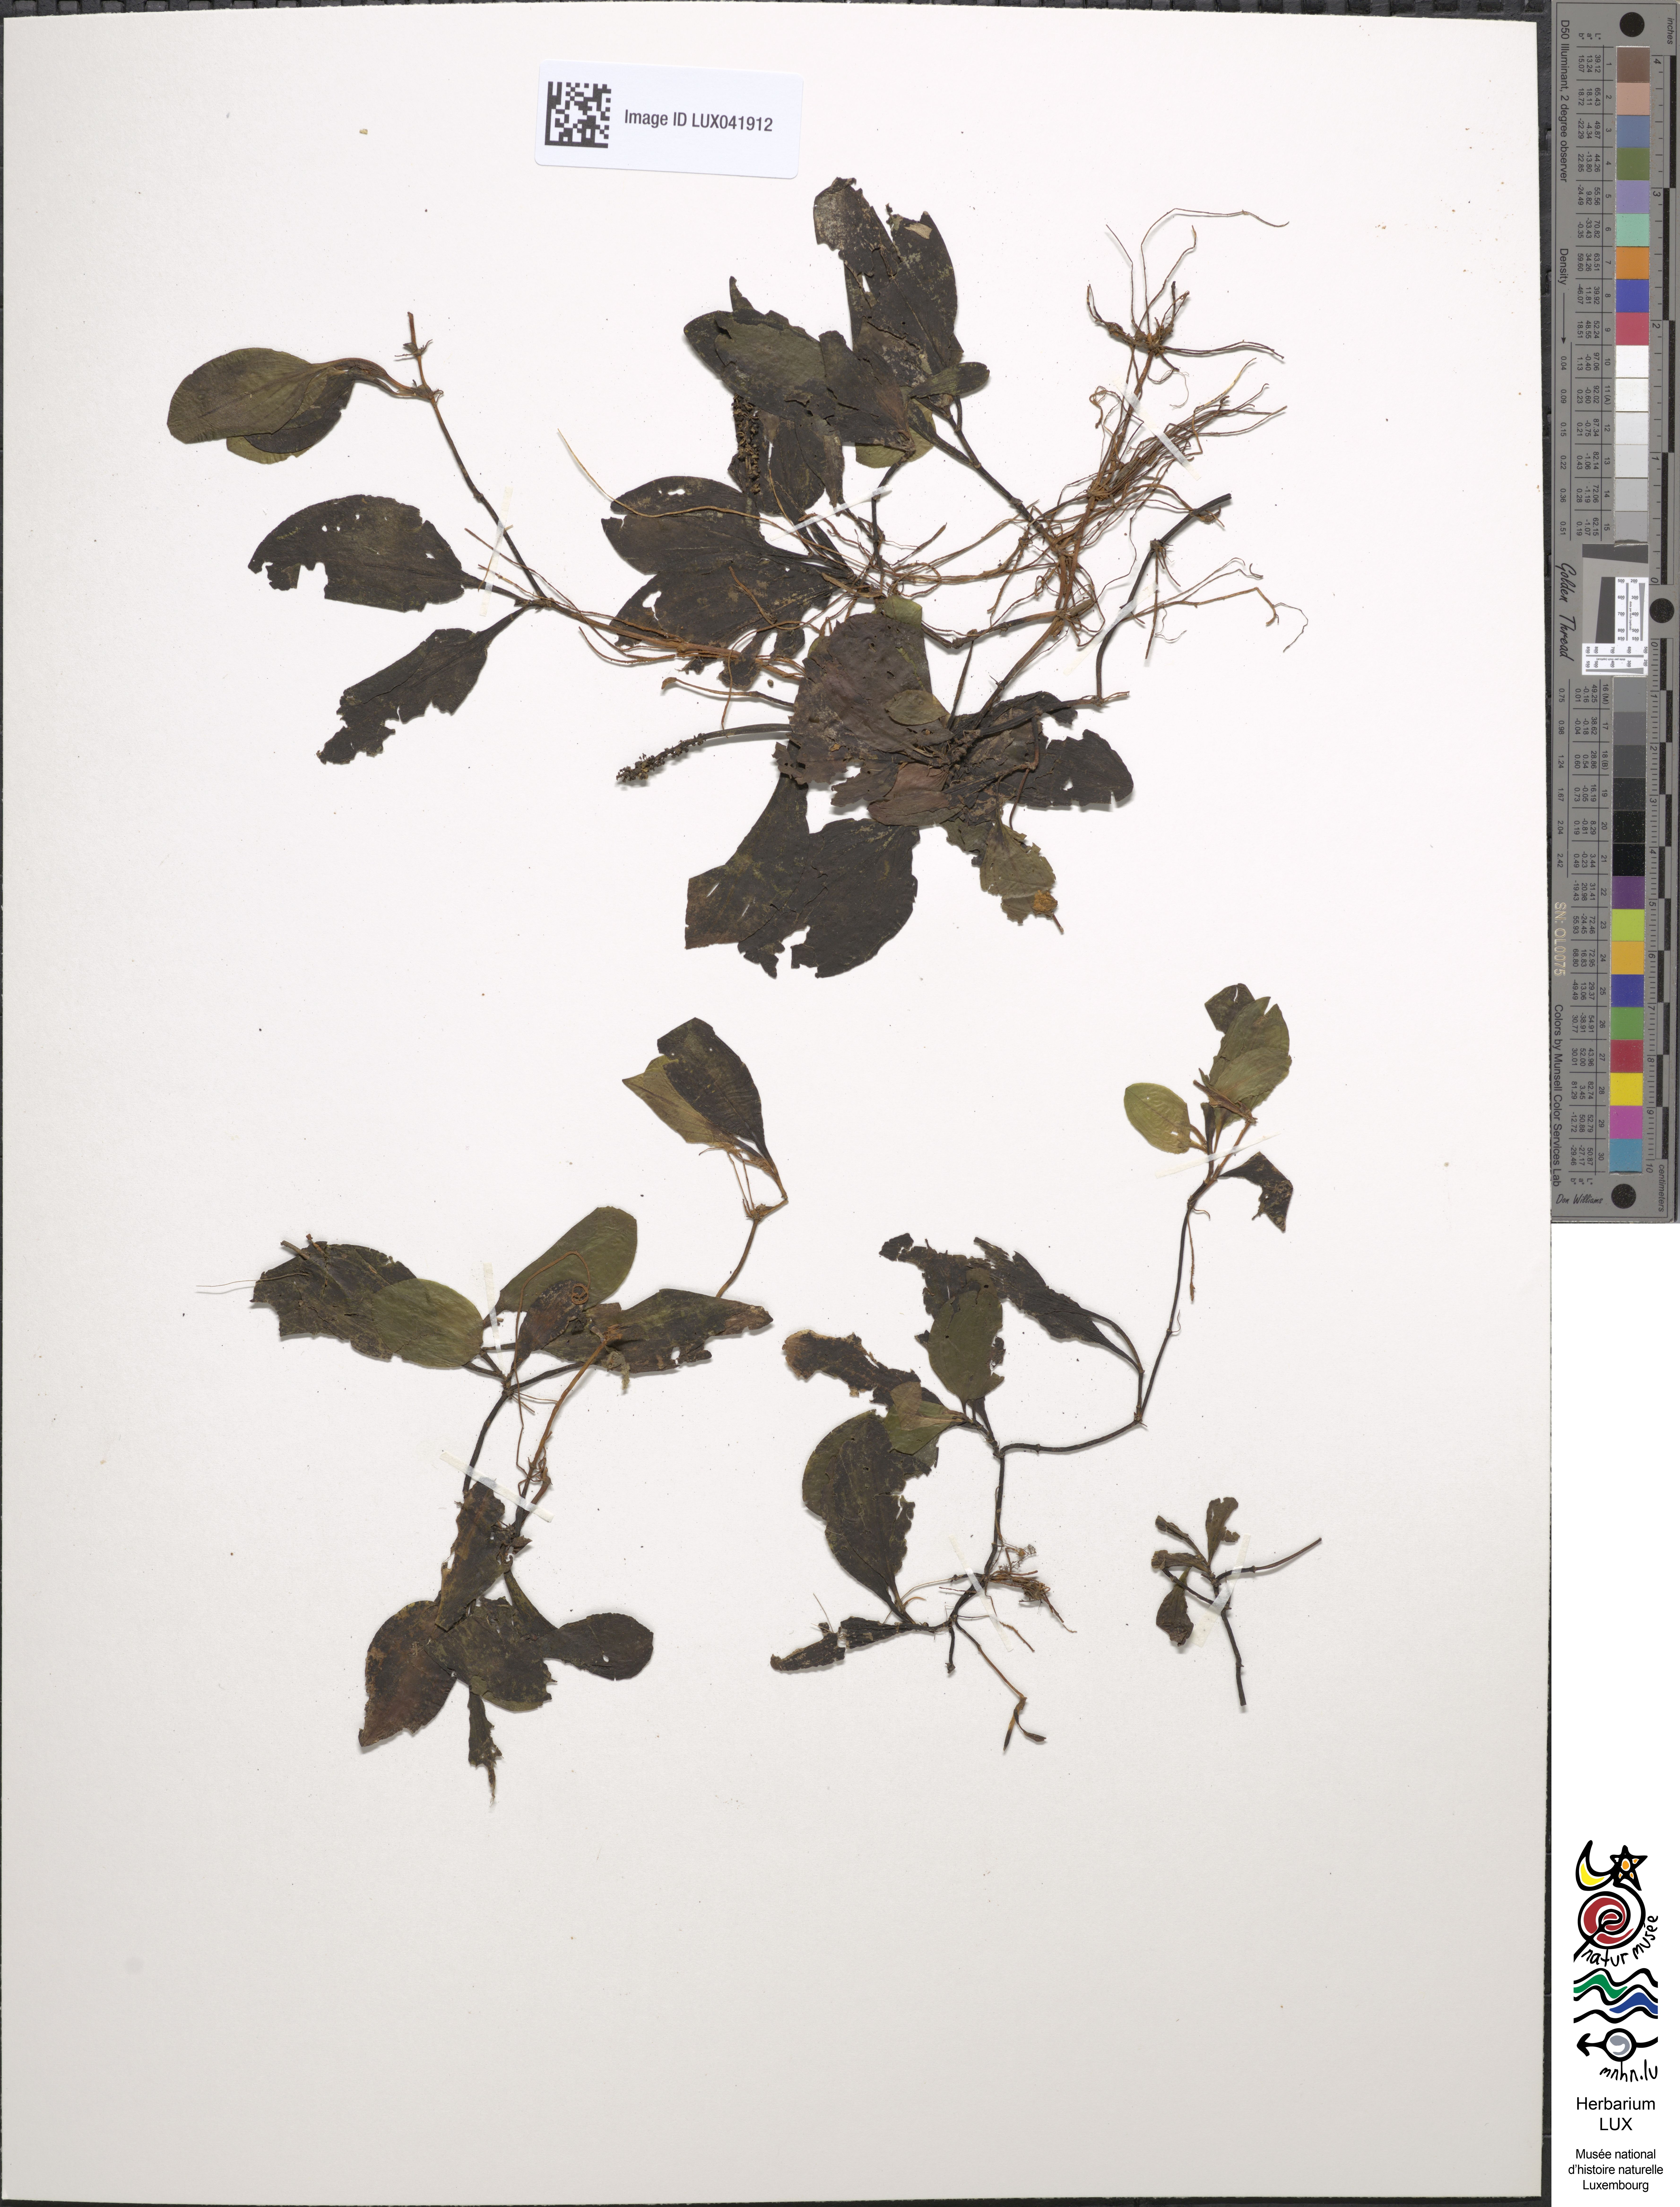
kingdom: Plantae
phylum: Tracheophyta
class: Liliopsida
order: Alismatales
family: Potamogetonaceae
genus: Potamogeton
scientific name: Potamogeton coloratus
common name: Fen pondweed
